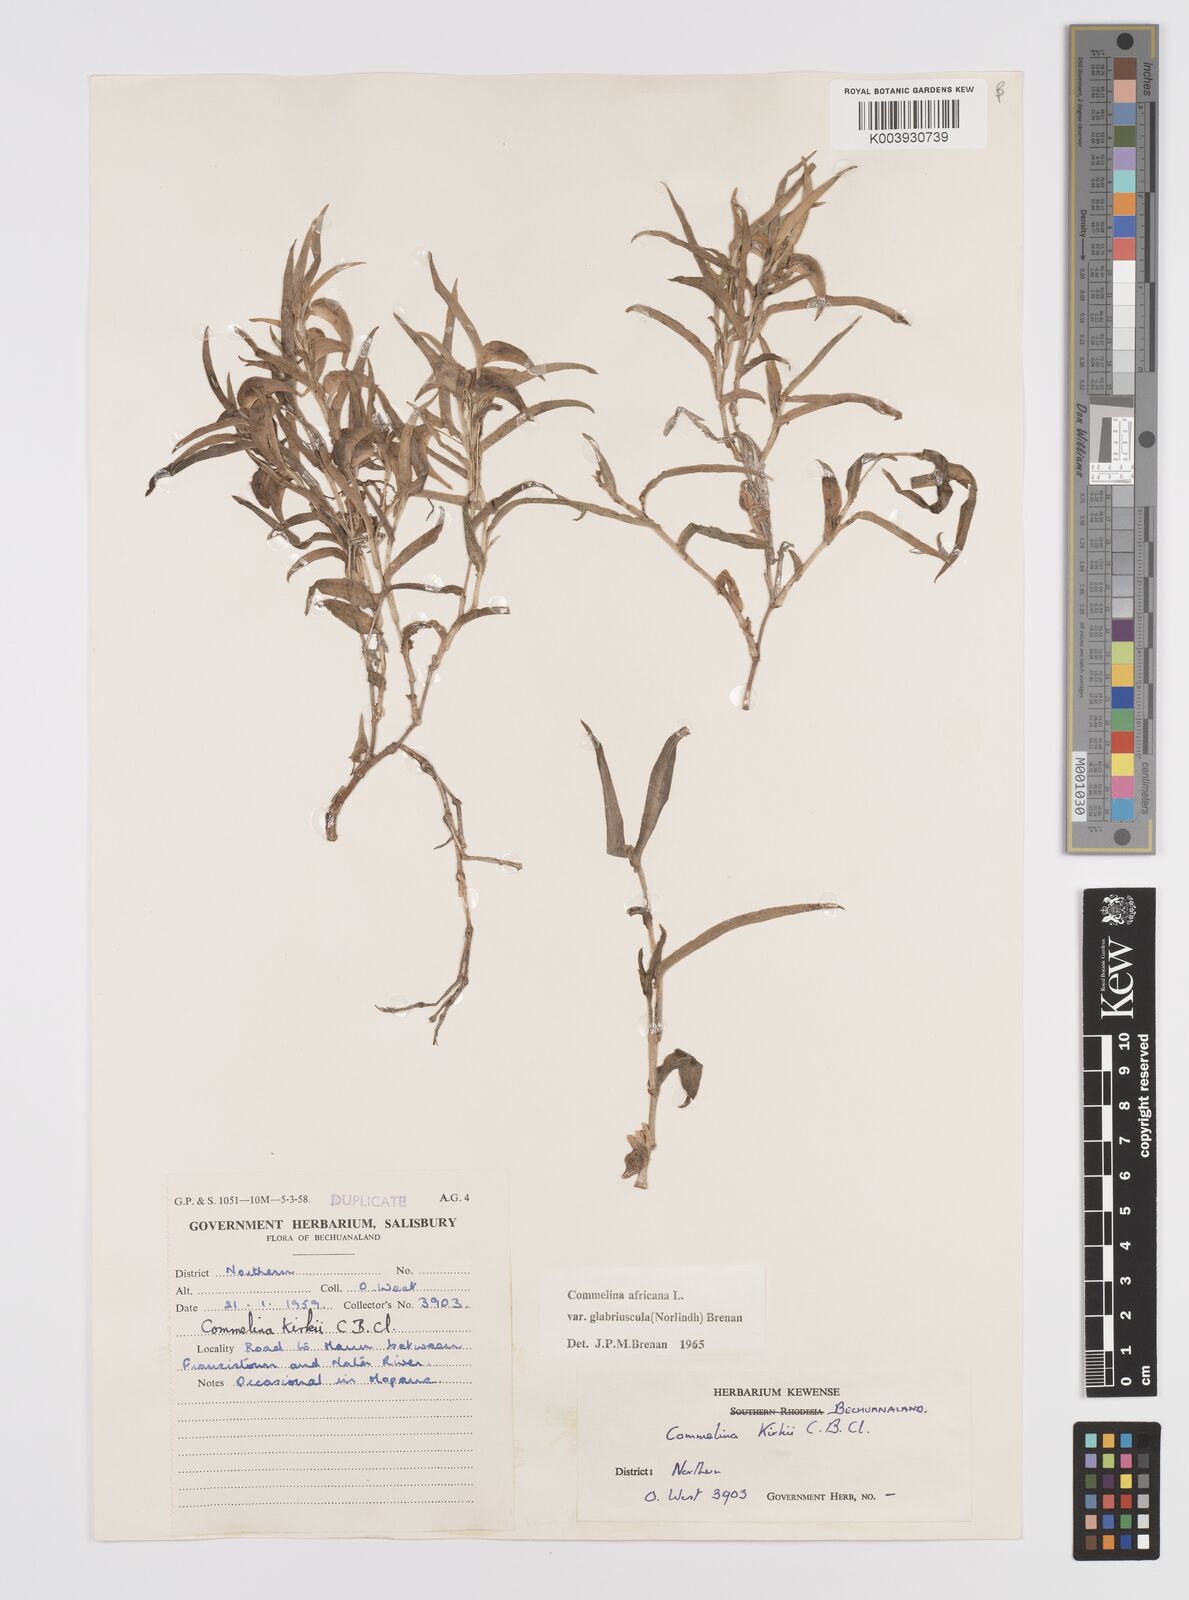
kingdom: Plantae
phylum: Tracheophyta
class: Liliopsida
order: Commelinales
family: Commelinaceae
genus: Commelina
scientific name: Commelina africana
